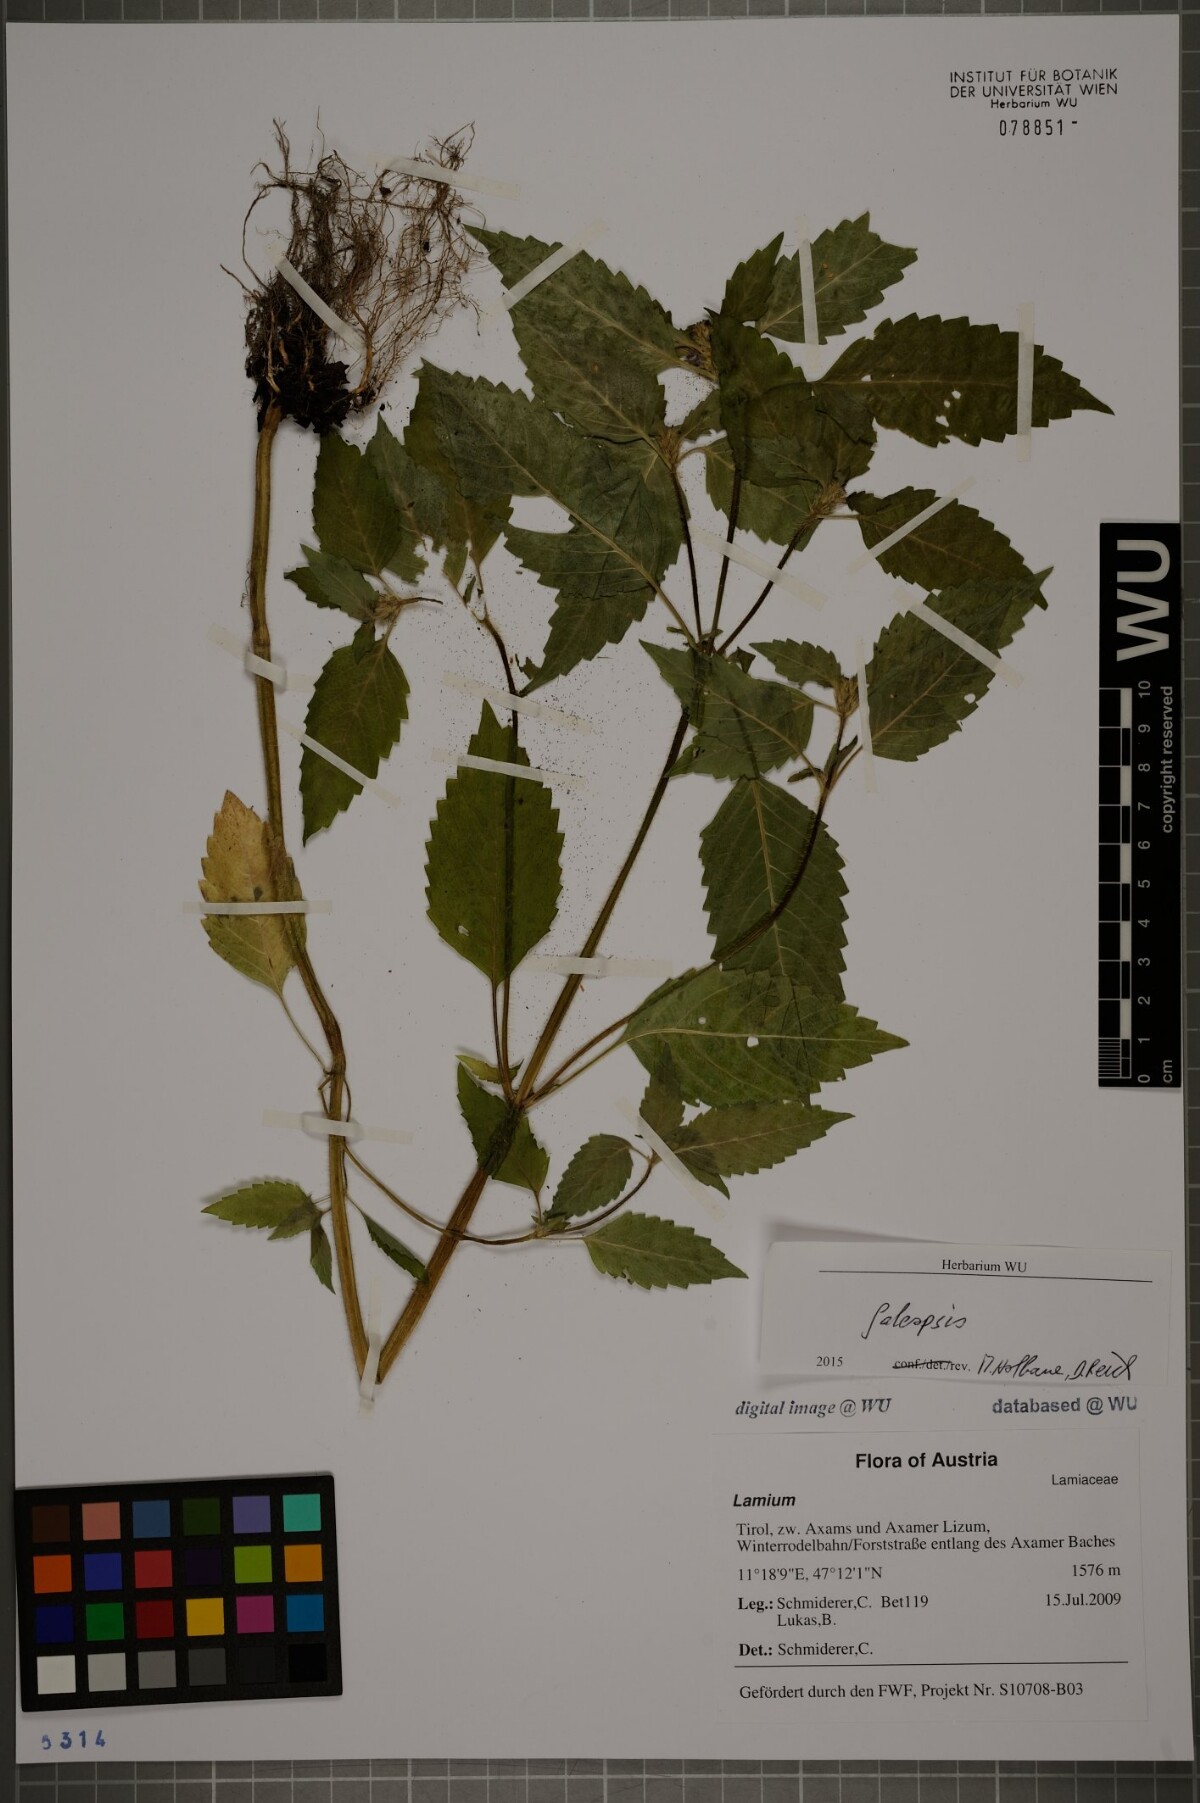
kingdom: Plantae
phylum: Tracheophyta
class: Magnoliopsida
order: Lamiales
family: Lamiaceae
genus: Galeopsis
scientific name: Galeopsis
